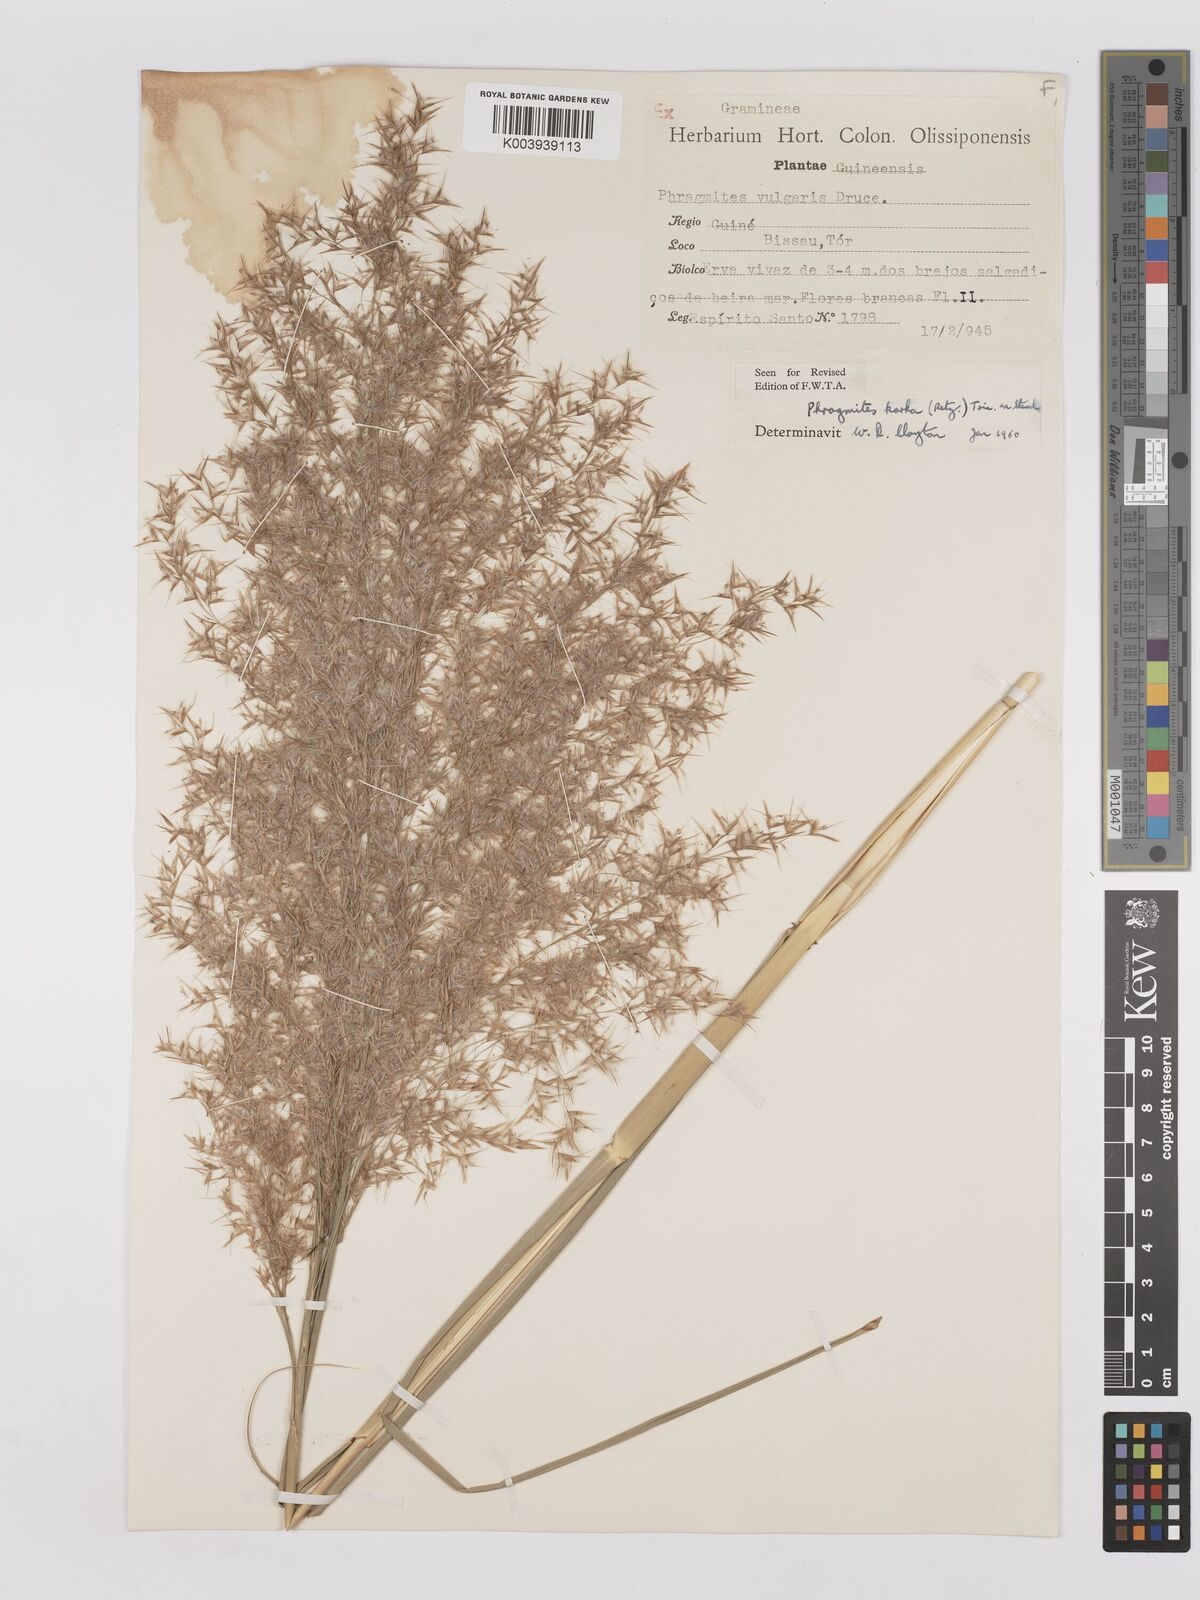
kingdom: Plantae
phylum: Tracheophyta
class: Liliopsida
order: Poales
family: Poaceae
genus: Phragmites
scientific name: Phragmites karka
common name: Tropical reed
